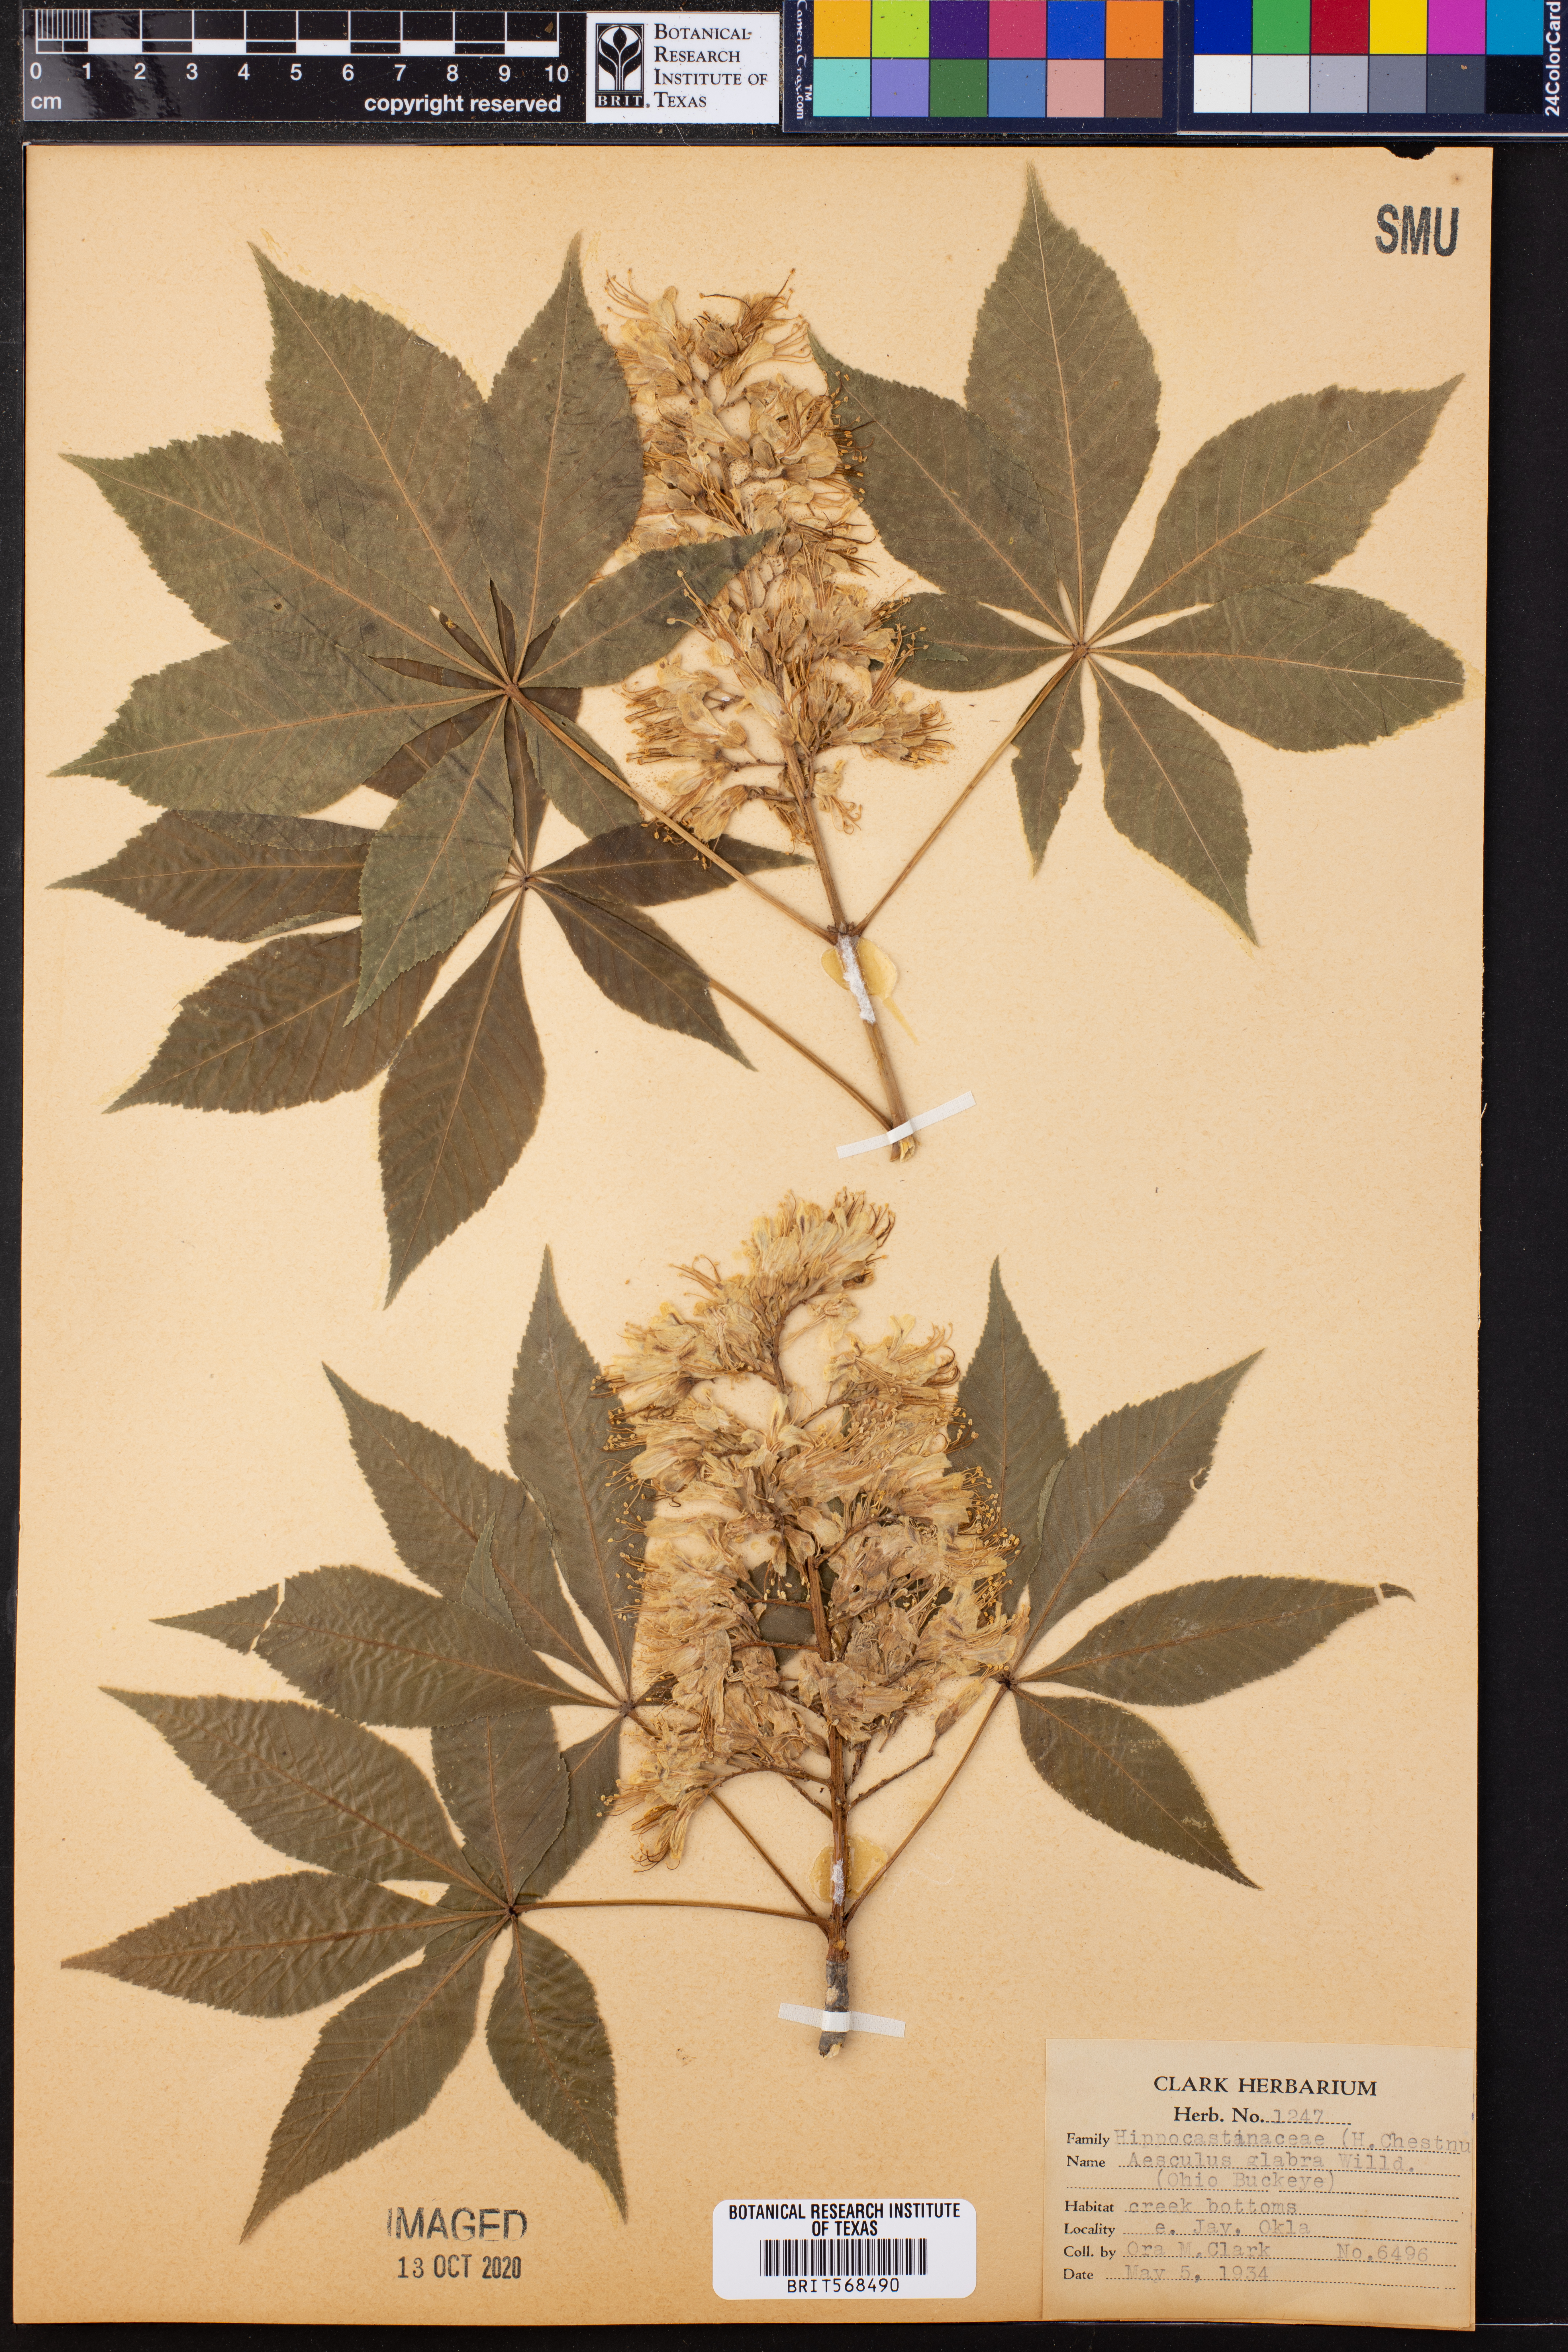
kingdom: Plantae
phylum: Tracheophyta
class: Magnoliopsida
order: Sapindales
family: Sapindaceae
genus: Aesculus
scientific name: Aesculus glabra
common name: Ohio buckeye
